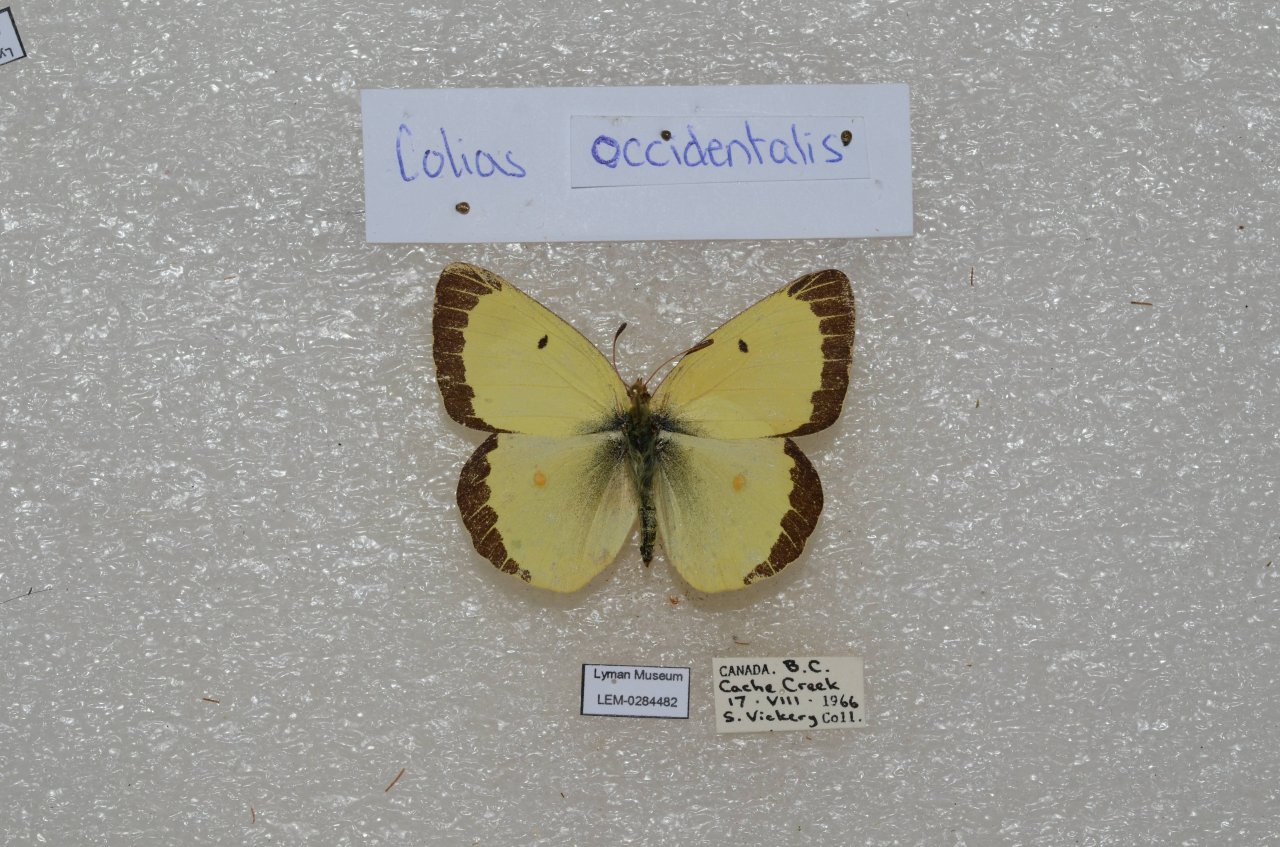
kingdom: Animalia
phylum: Arthropoda
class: Insecta
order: Lepidoptera
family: Pieridae
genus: Colias
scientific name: Colias occidentalis
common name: Western Sulphur
